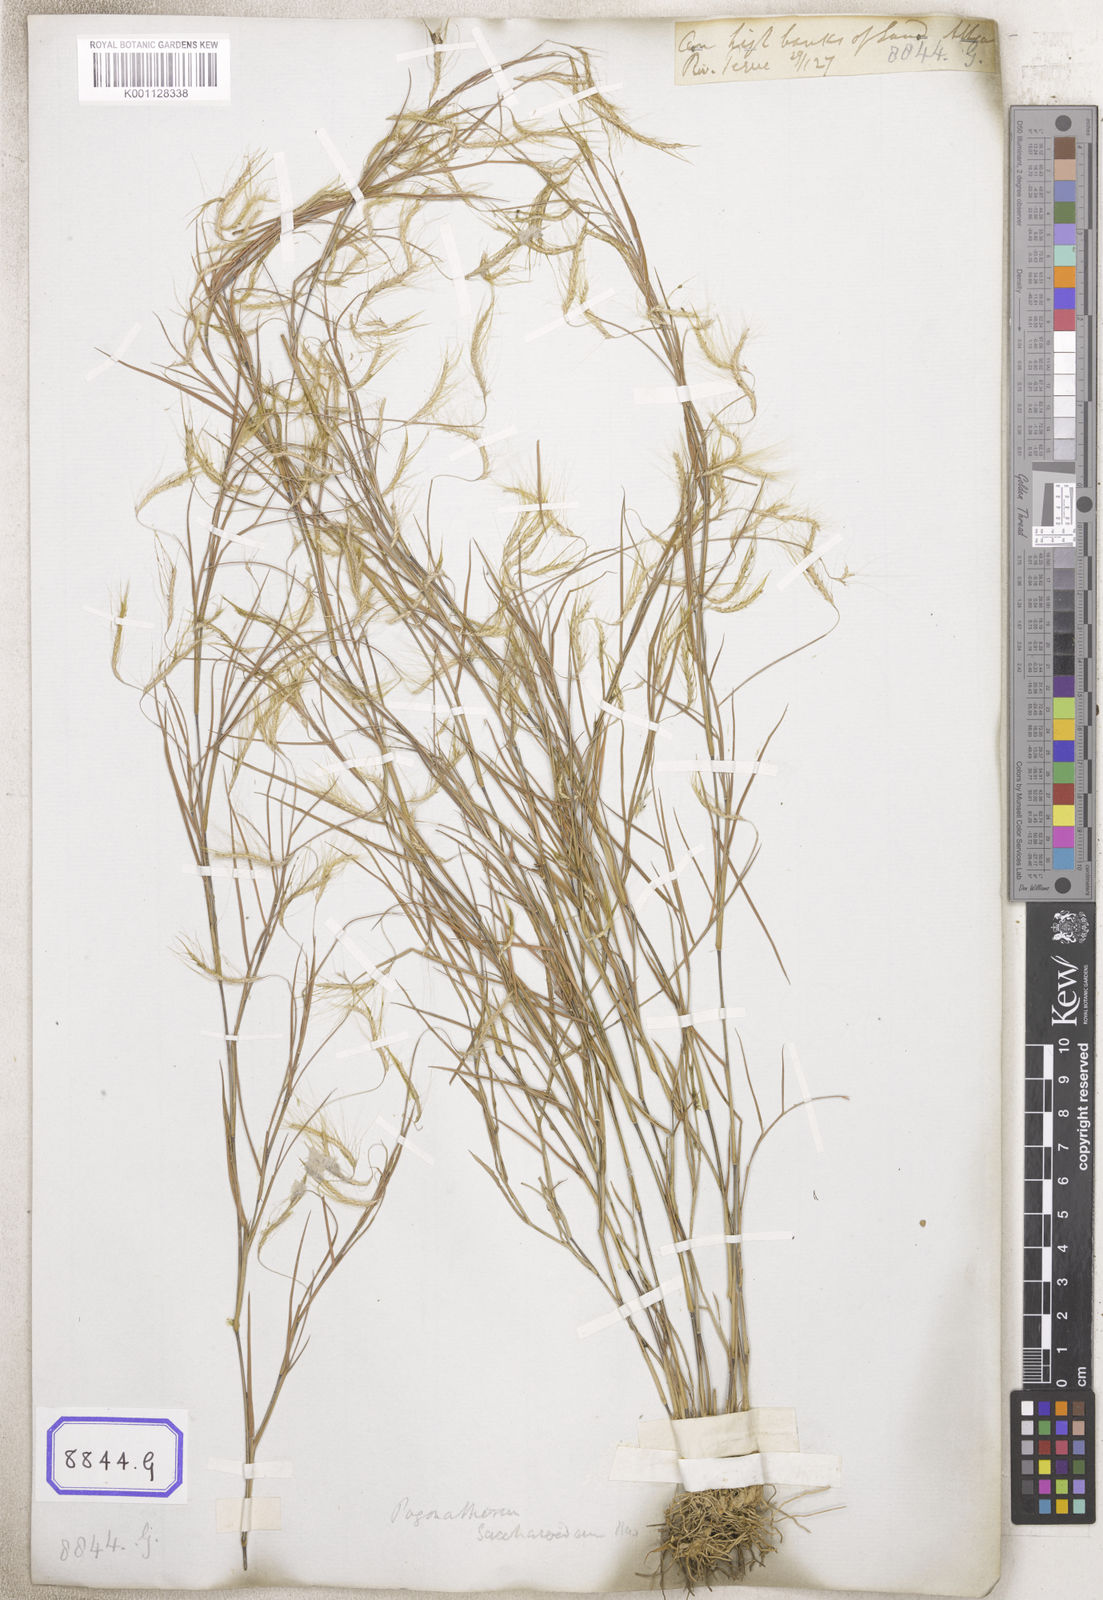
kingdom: Plantae
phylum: Tracheophyta
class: Liliopsida
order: Poales
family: Poaceae
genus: Pogonatherum
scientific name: Pogonatherum paniceum
